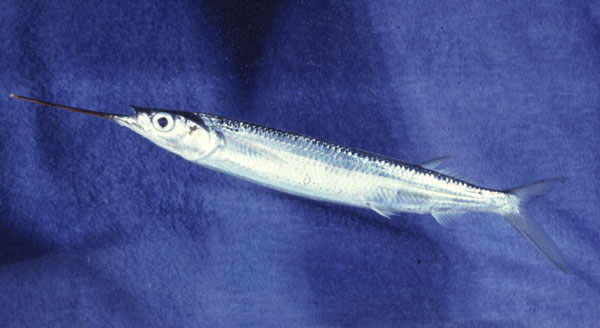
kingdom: Animalia
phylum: Chordata
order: Beloniformes
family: Hemiramphidae
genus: Hemiramphus
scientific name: Hemiramphus lutkei
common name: Lutke's halfbeak
